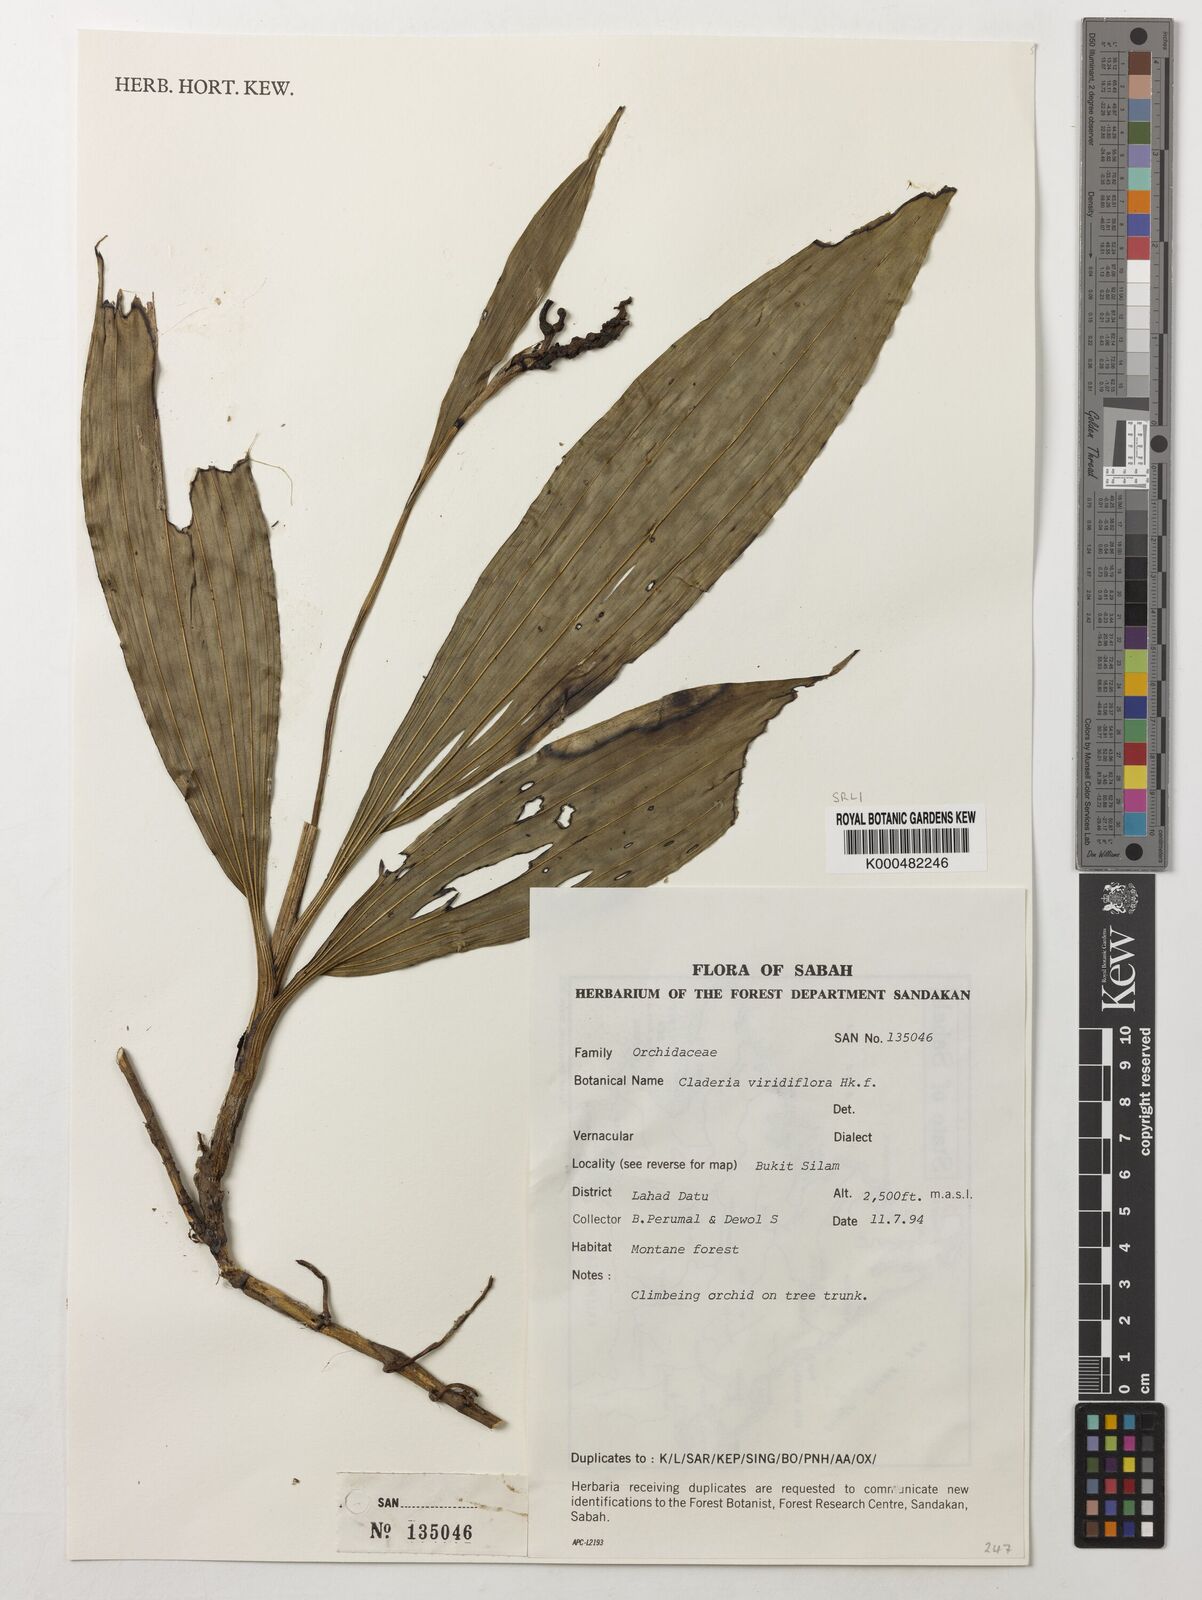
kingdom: Plantae
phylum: Tracheophyta
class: Liliopsida
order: Asparagales
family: Orchidaceae
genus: Claderia
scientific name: Claderia
